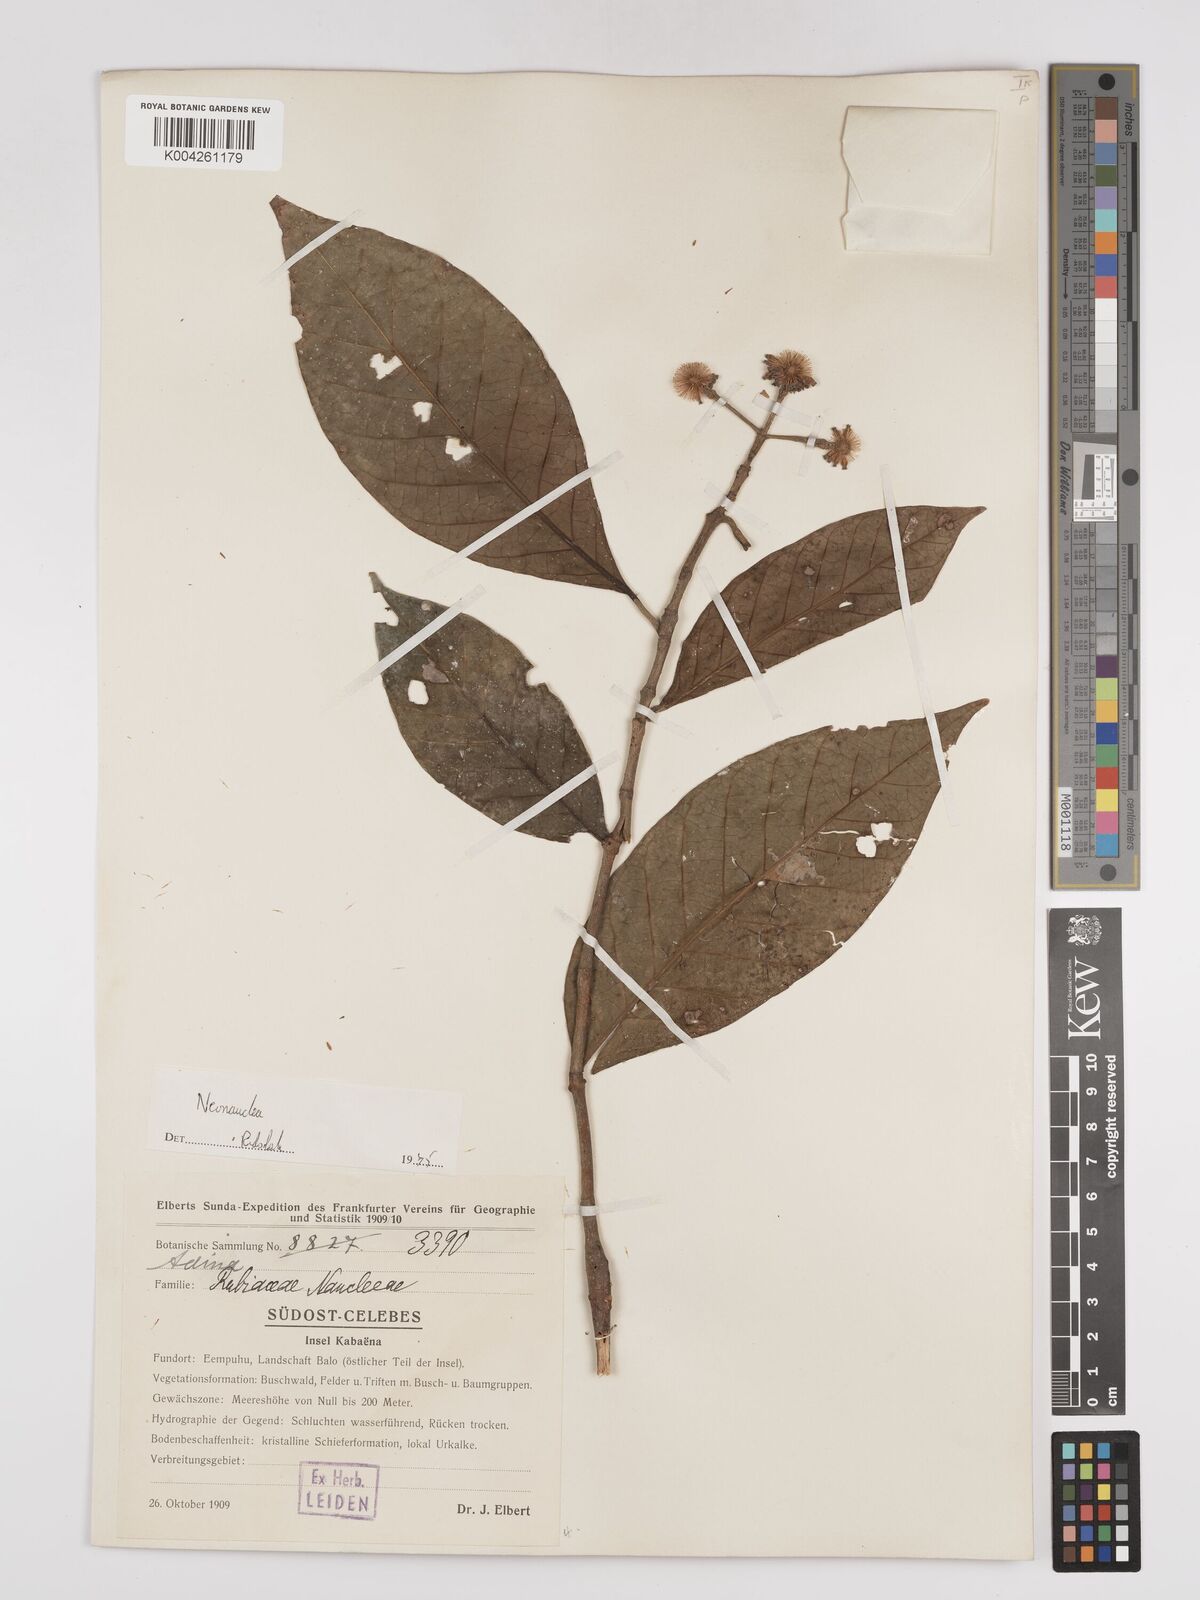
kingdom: Plantae
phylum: Tracheophyta
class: Magnoliopsida
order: Gentianales
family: Rubiaceae
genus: Neonauclea
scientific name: Neonauclea
